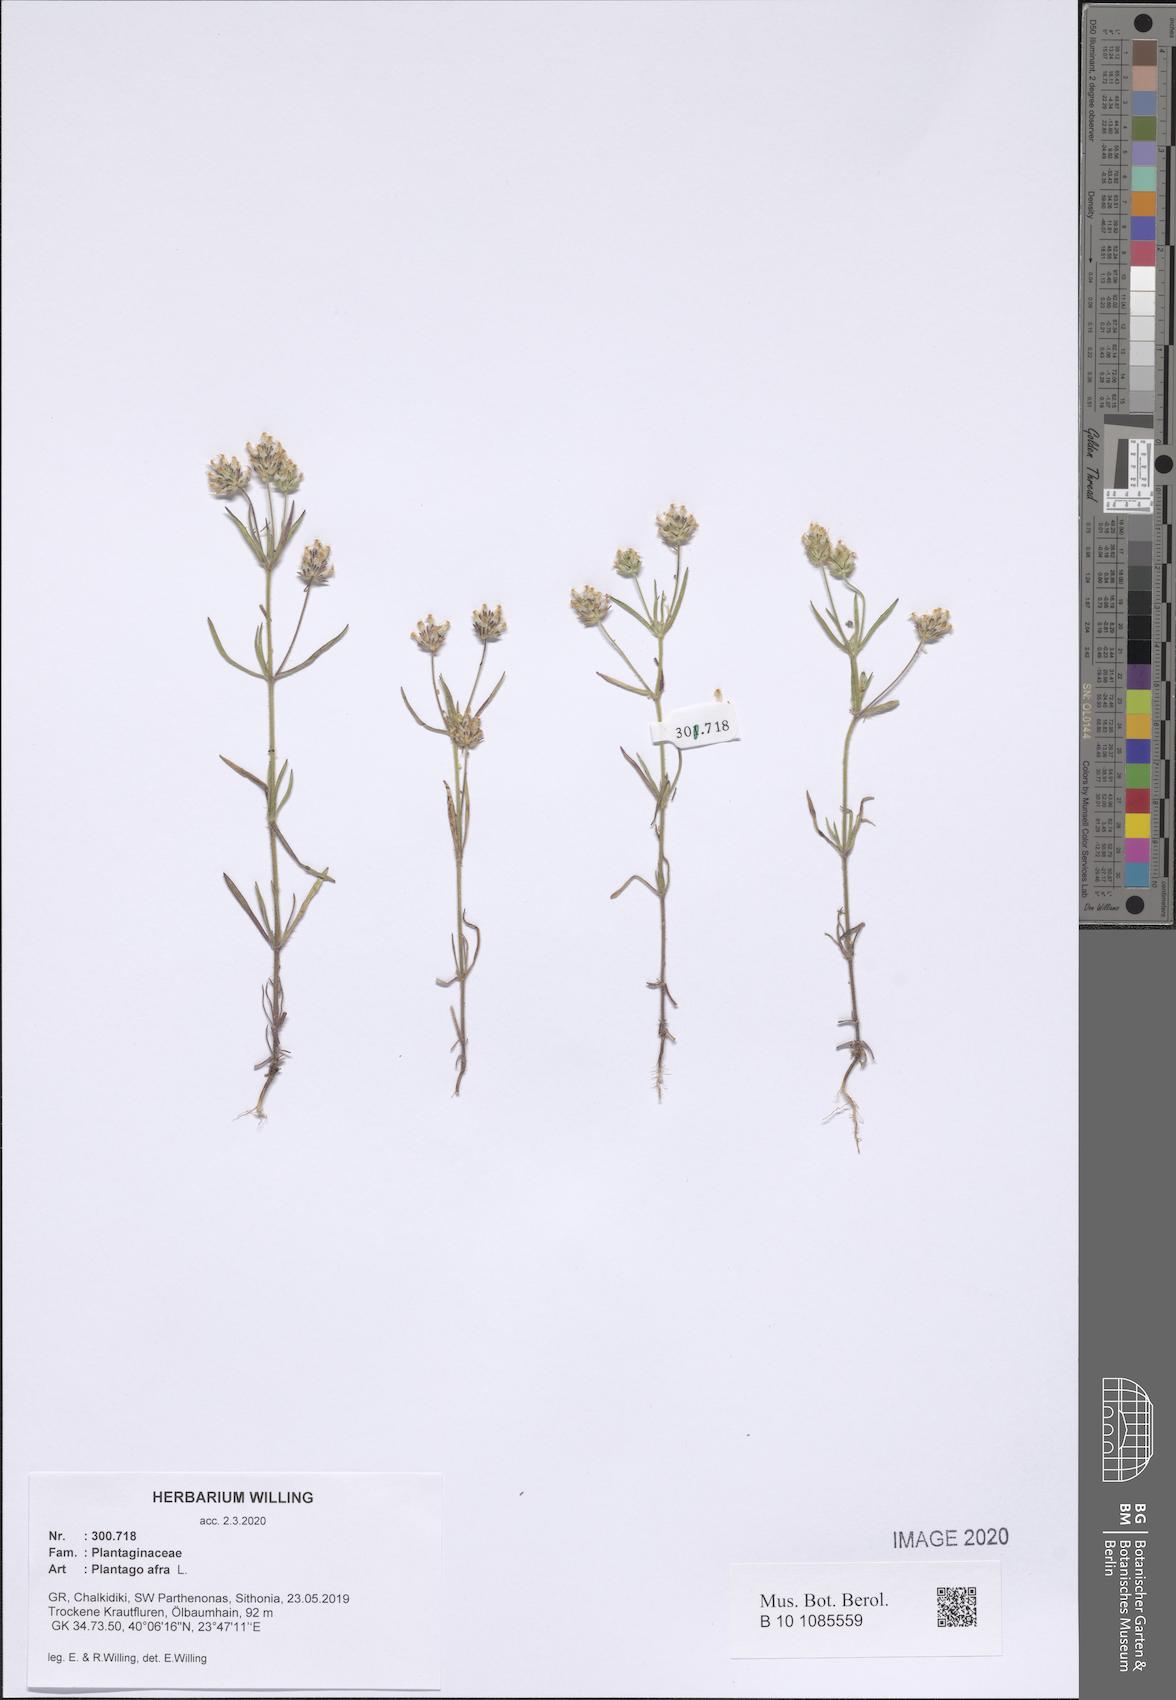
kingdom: Plantae
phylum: Tracheophyta
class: Magnoliopsida
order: Lamiales
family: Plantaginaceae
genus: Plantago
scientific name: Plantago afra
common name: Glandular plantain
